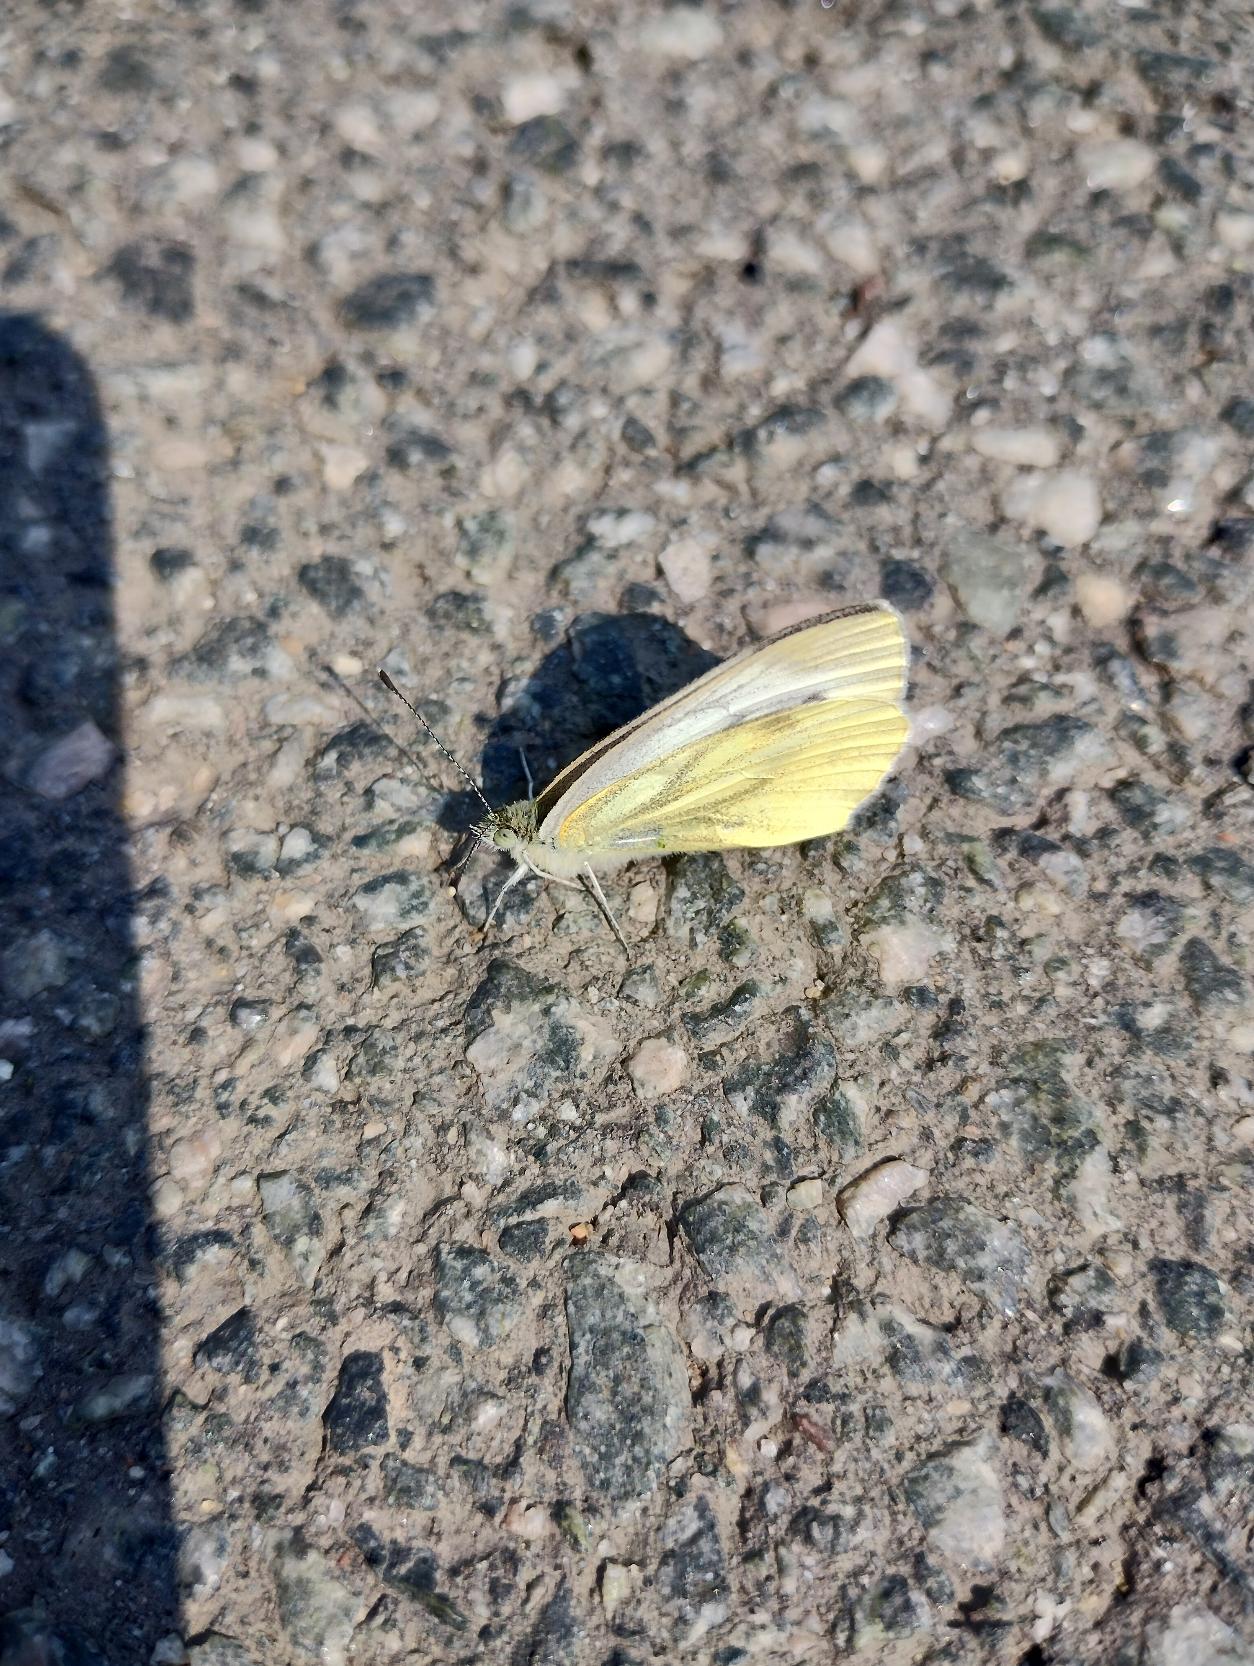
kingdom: Animalia
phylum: Arthropoda
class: Insecta
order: Lepidoptera
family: Pieridae
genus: Pieris
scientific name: Pieris napi
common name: Grønåret kålsommerfugl
